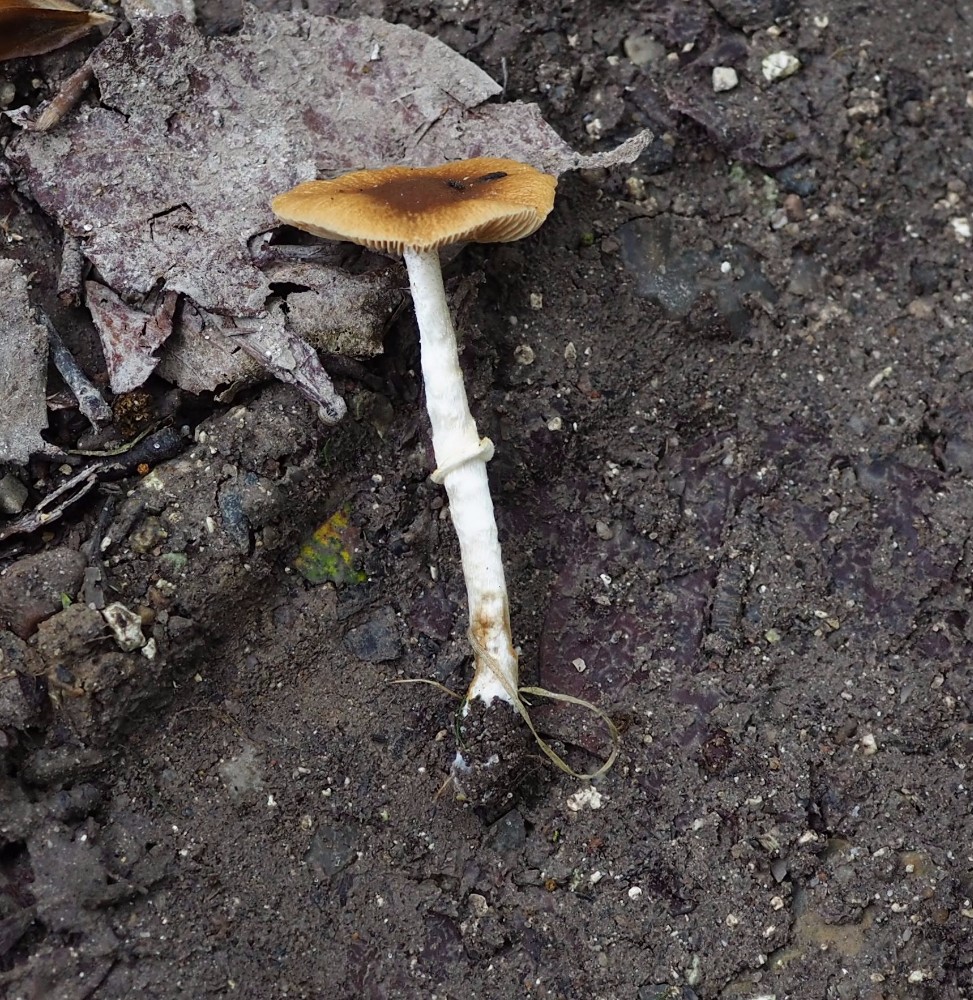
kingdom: Fungi
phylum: Basidiomycota
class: Agaricomycetes
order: Agaricales
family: Bolbitiaceae
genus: Conocybe
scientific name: Conocybe arrhenii
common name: ring-dansehat
